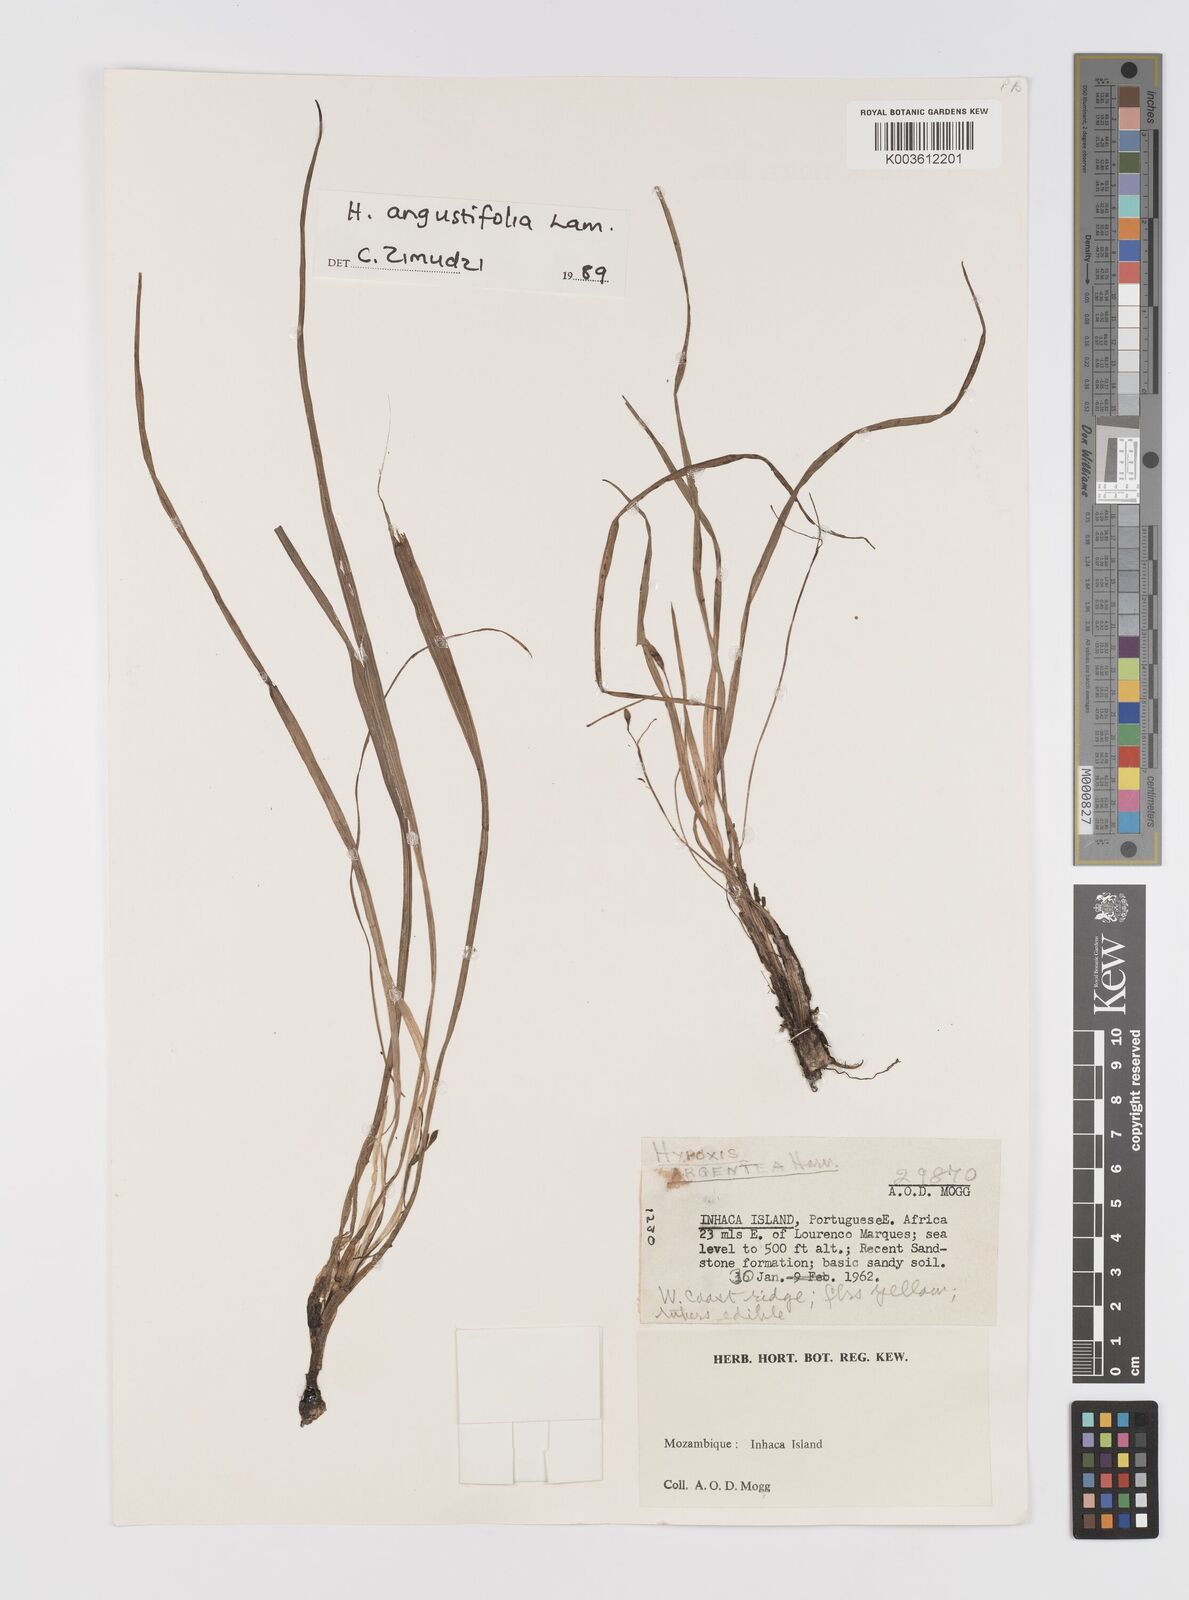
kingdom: Plantae
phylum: Tracheophyta
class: Liliopsida
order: Asparagales
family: Hypoxidaceae
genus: Hypoxis
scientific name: Hypoxis angustifolia
